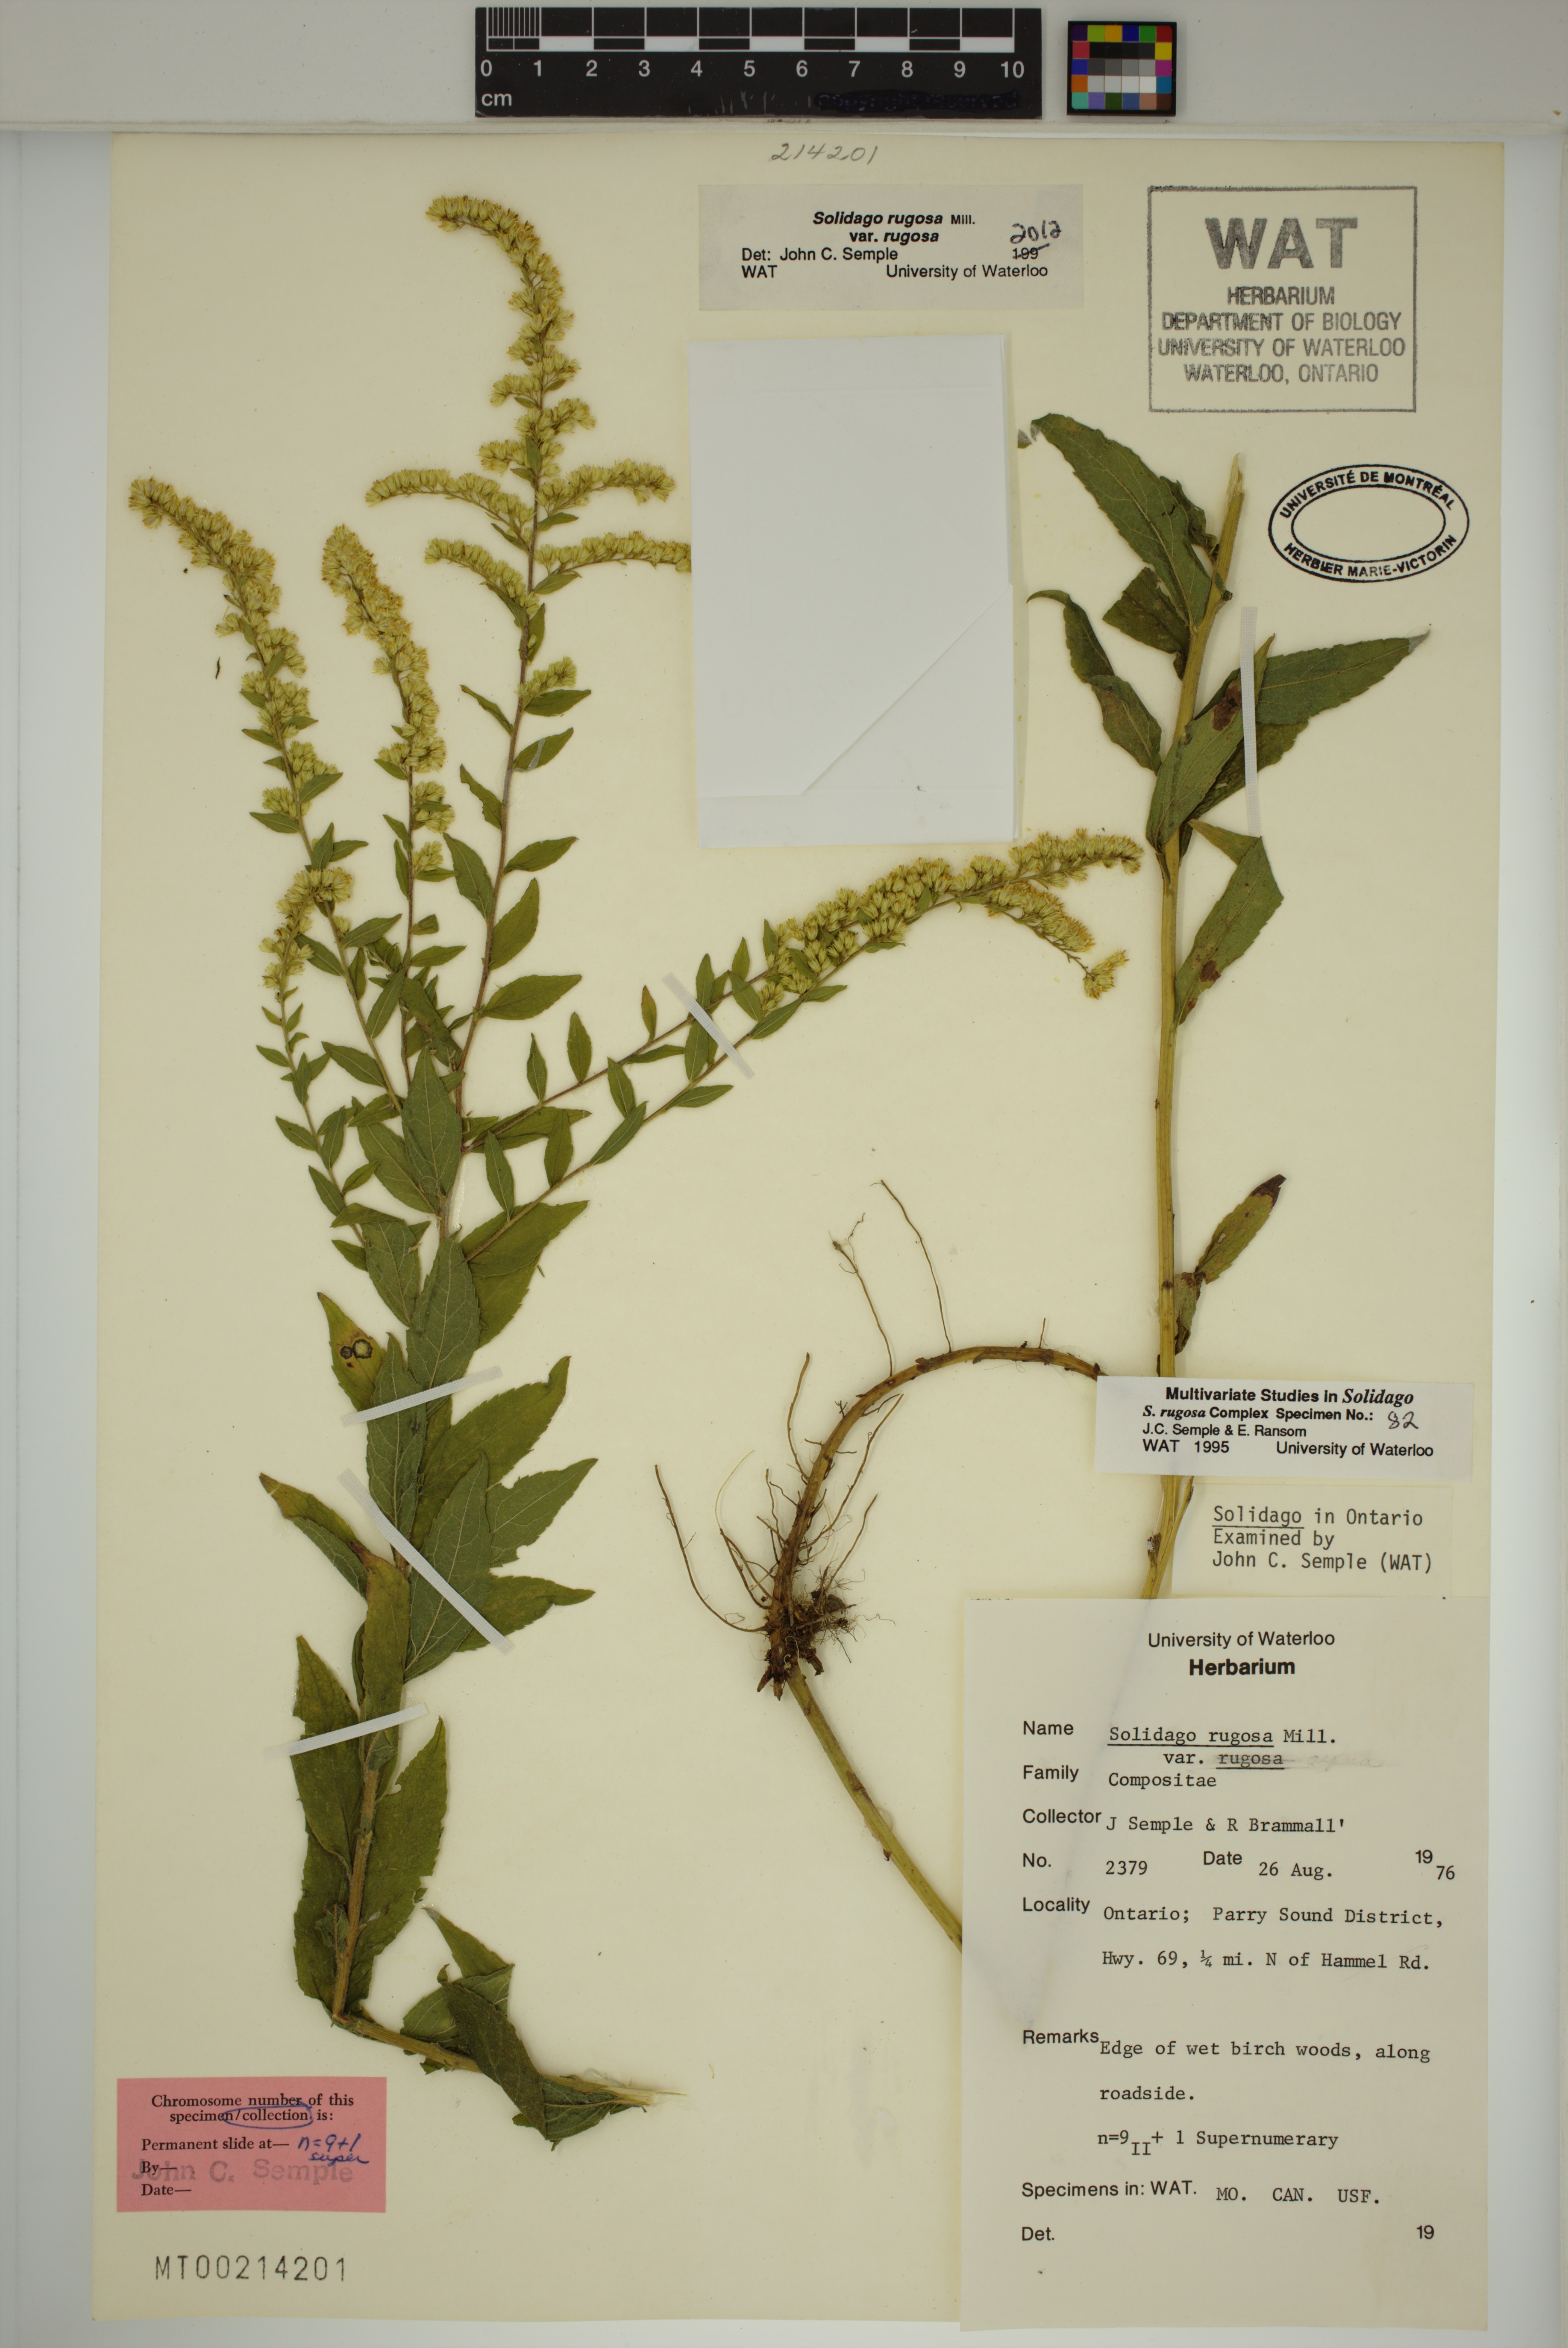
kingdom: Plantae
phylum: Tracheophyta
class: Magnoliopsida
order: Asterales
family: Asteraceae
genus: Solidago
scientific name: Solidago rugosa
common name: Rough-stemmed goldenrod
